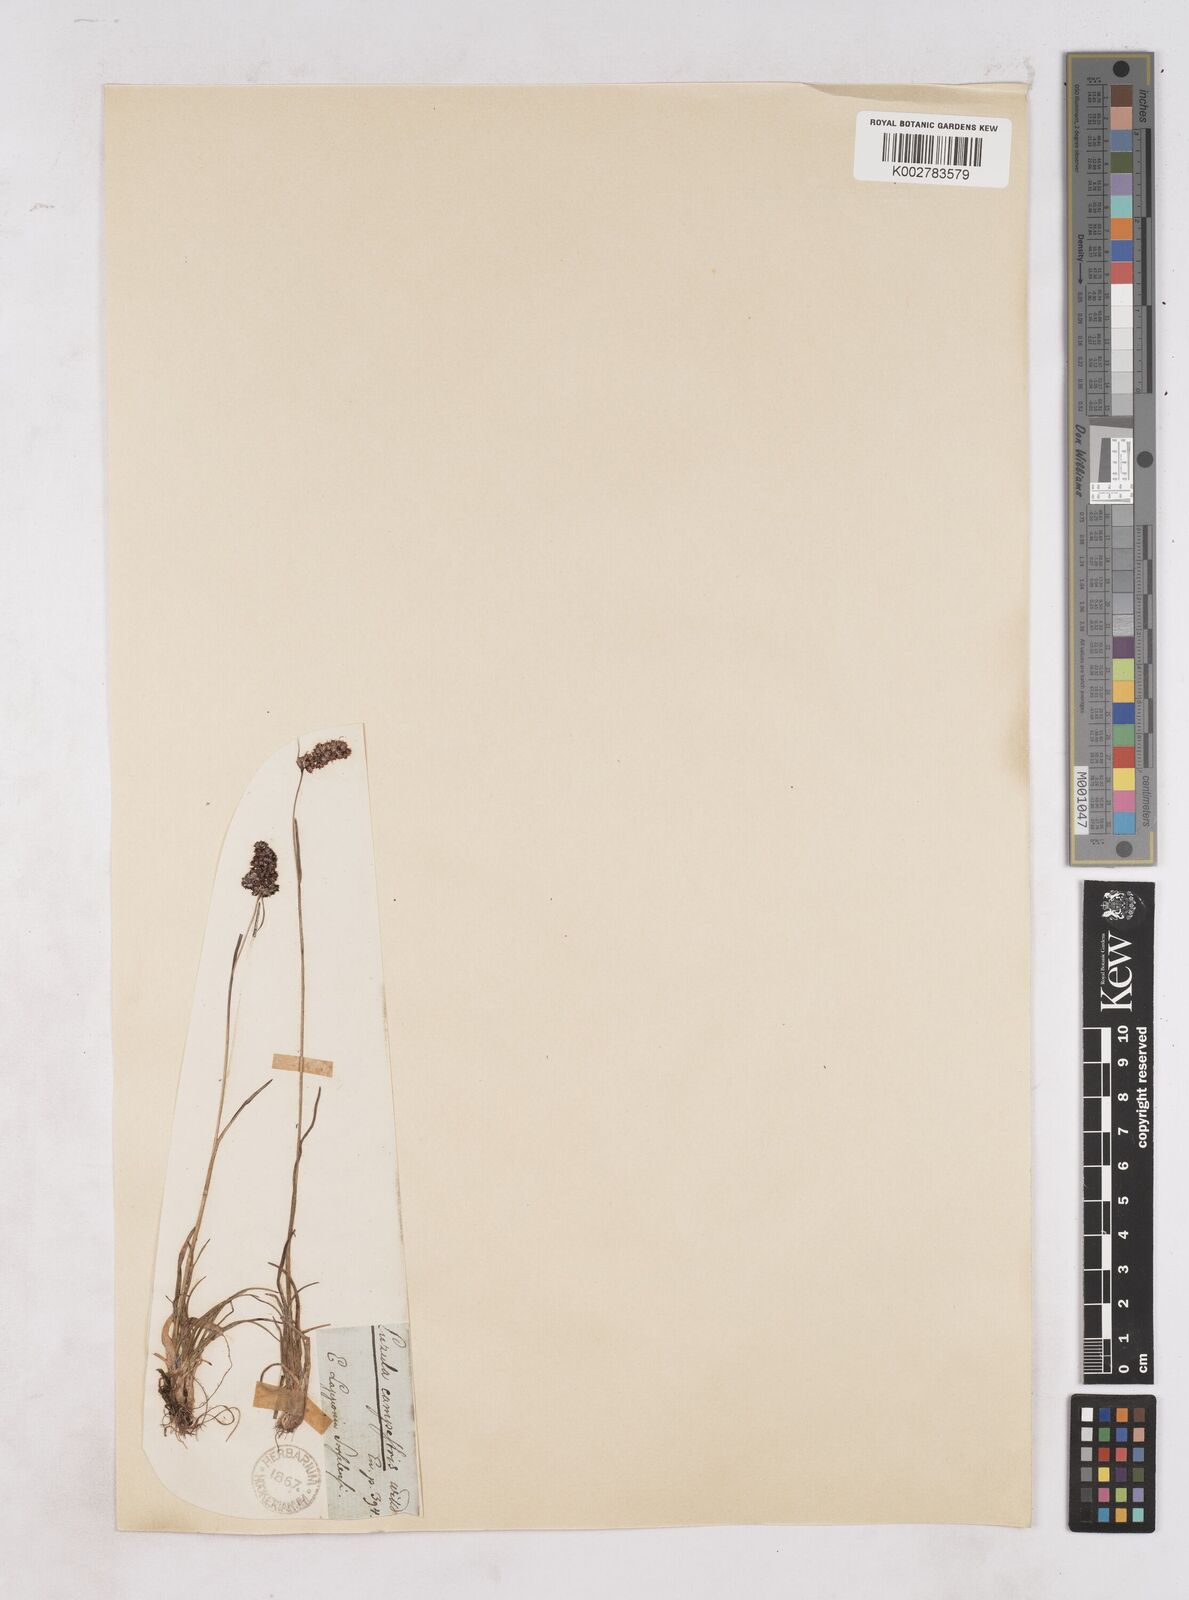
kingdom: Plantae
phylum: Tracheophyta
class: Liliopsida
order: Poales
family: Juncaceae
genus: Luzula
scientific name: Luzula
